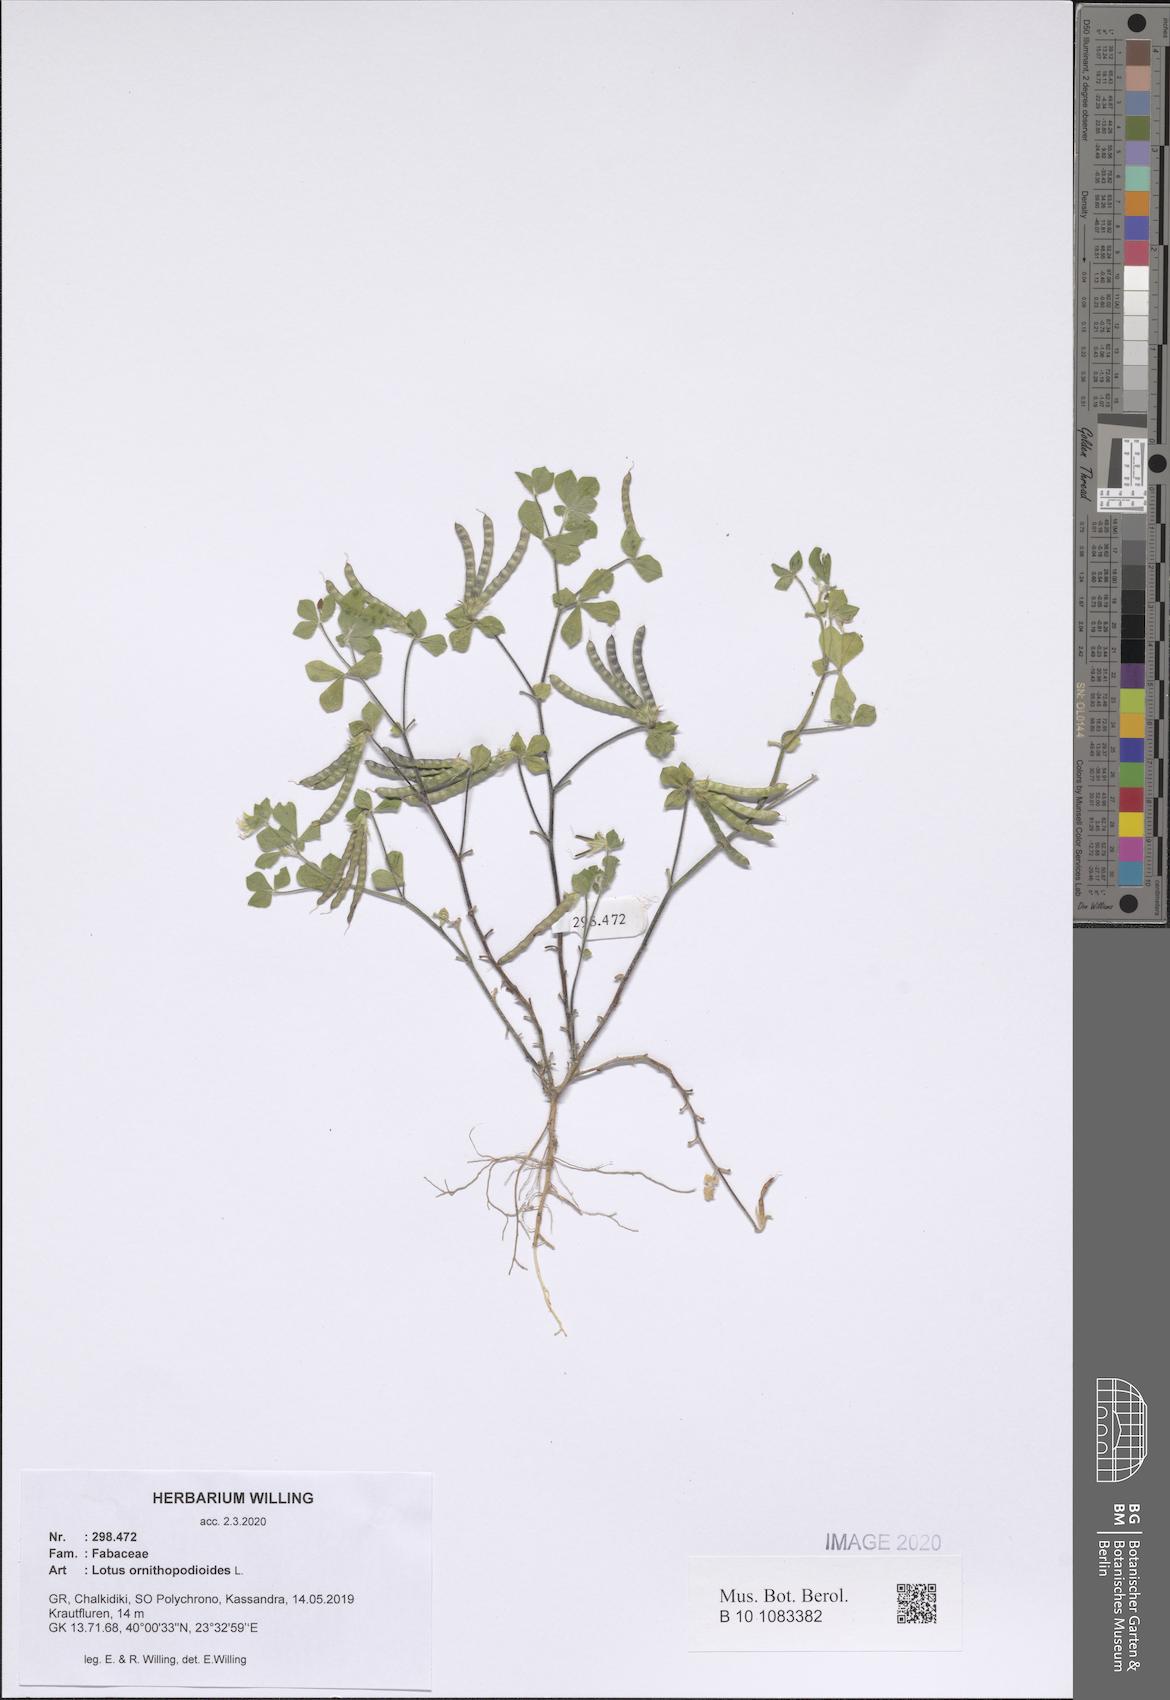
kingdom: Plantae
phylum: Tracheophyta
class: Magnoliopsida
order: Fabales
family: Fabaceae
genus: Lotus
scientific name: Lotus ornithopodioides
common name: Southern bird's-foot trefoil
